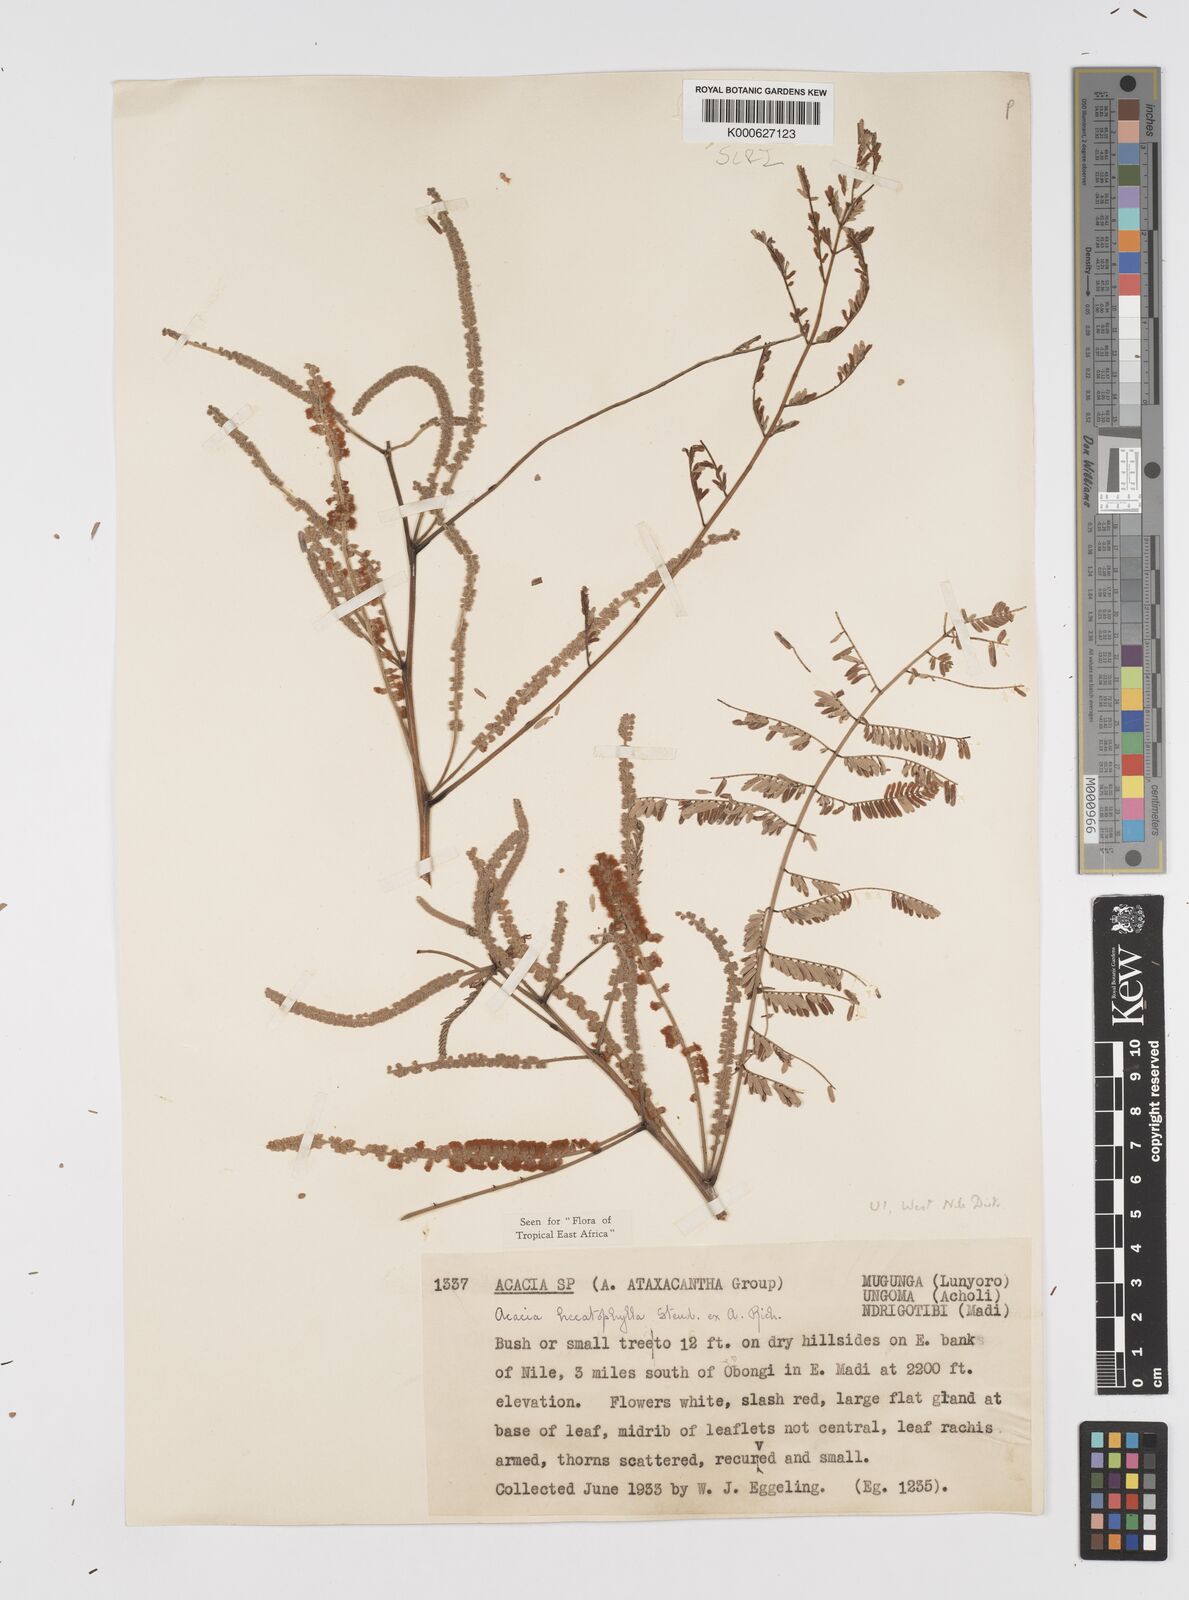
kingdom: Plantae
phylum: Tracheophyta
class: Magnoliopsida
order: Fabales
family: Fabaceae
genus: Senegalia
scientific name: Senegalia hecatophylla
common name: Long pod
